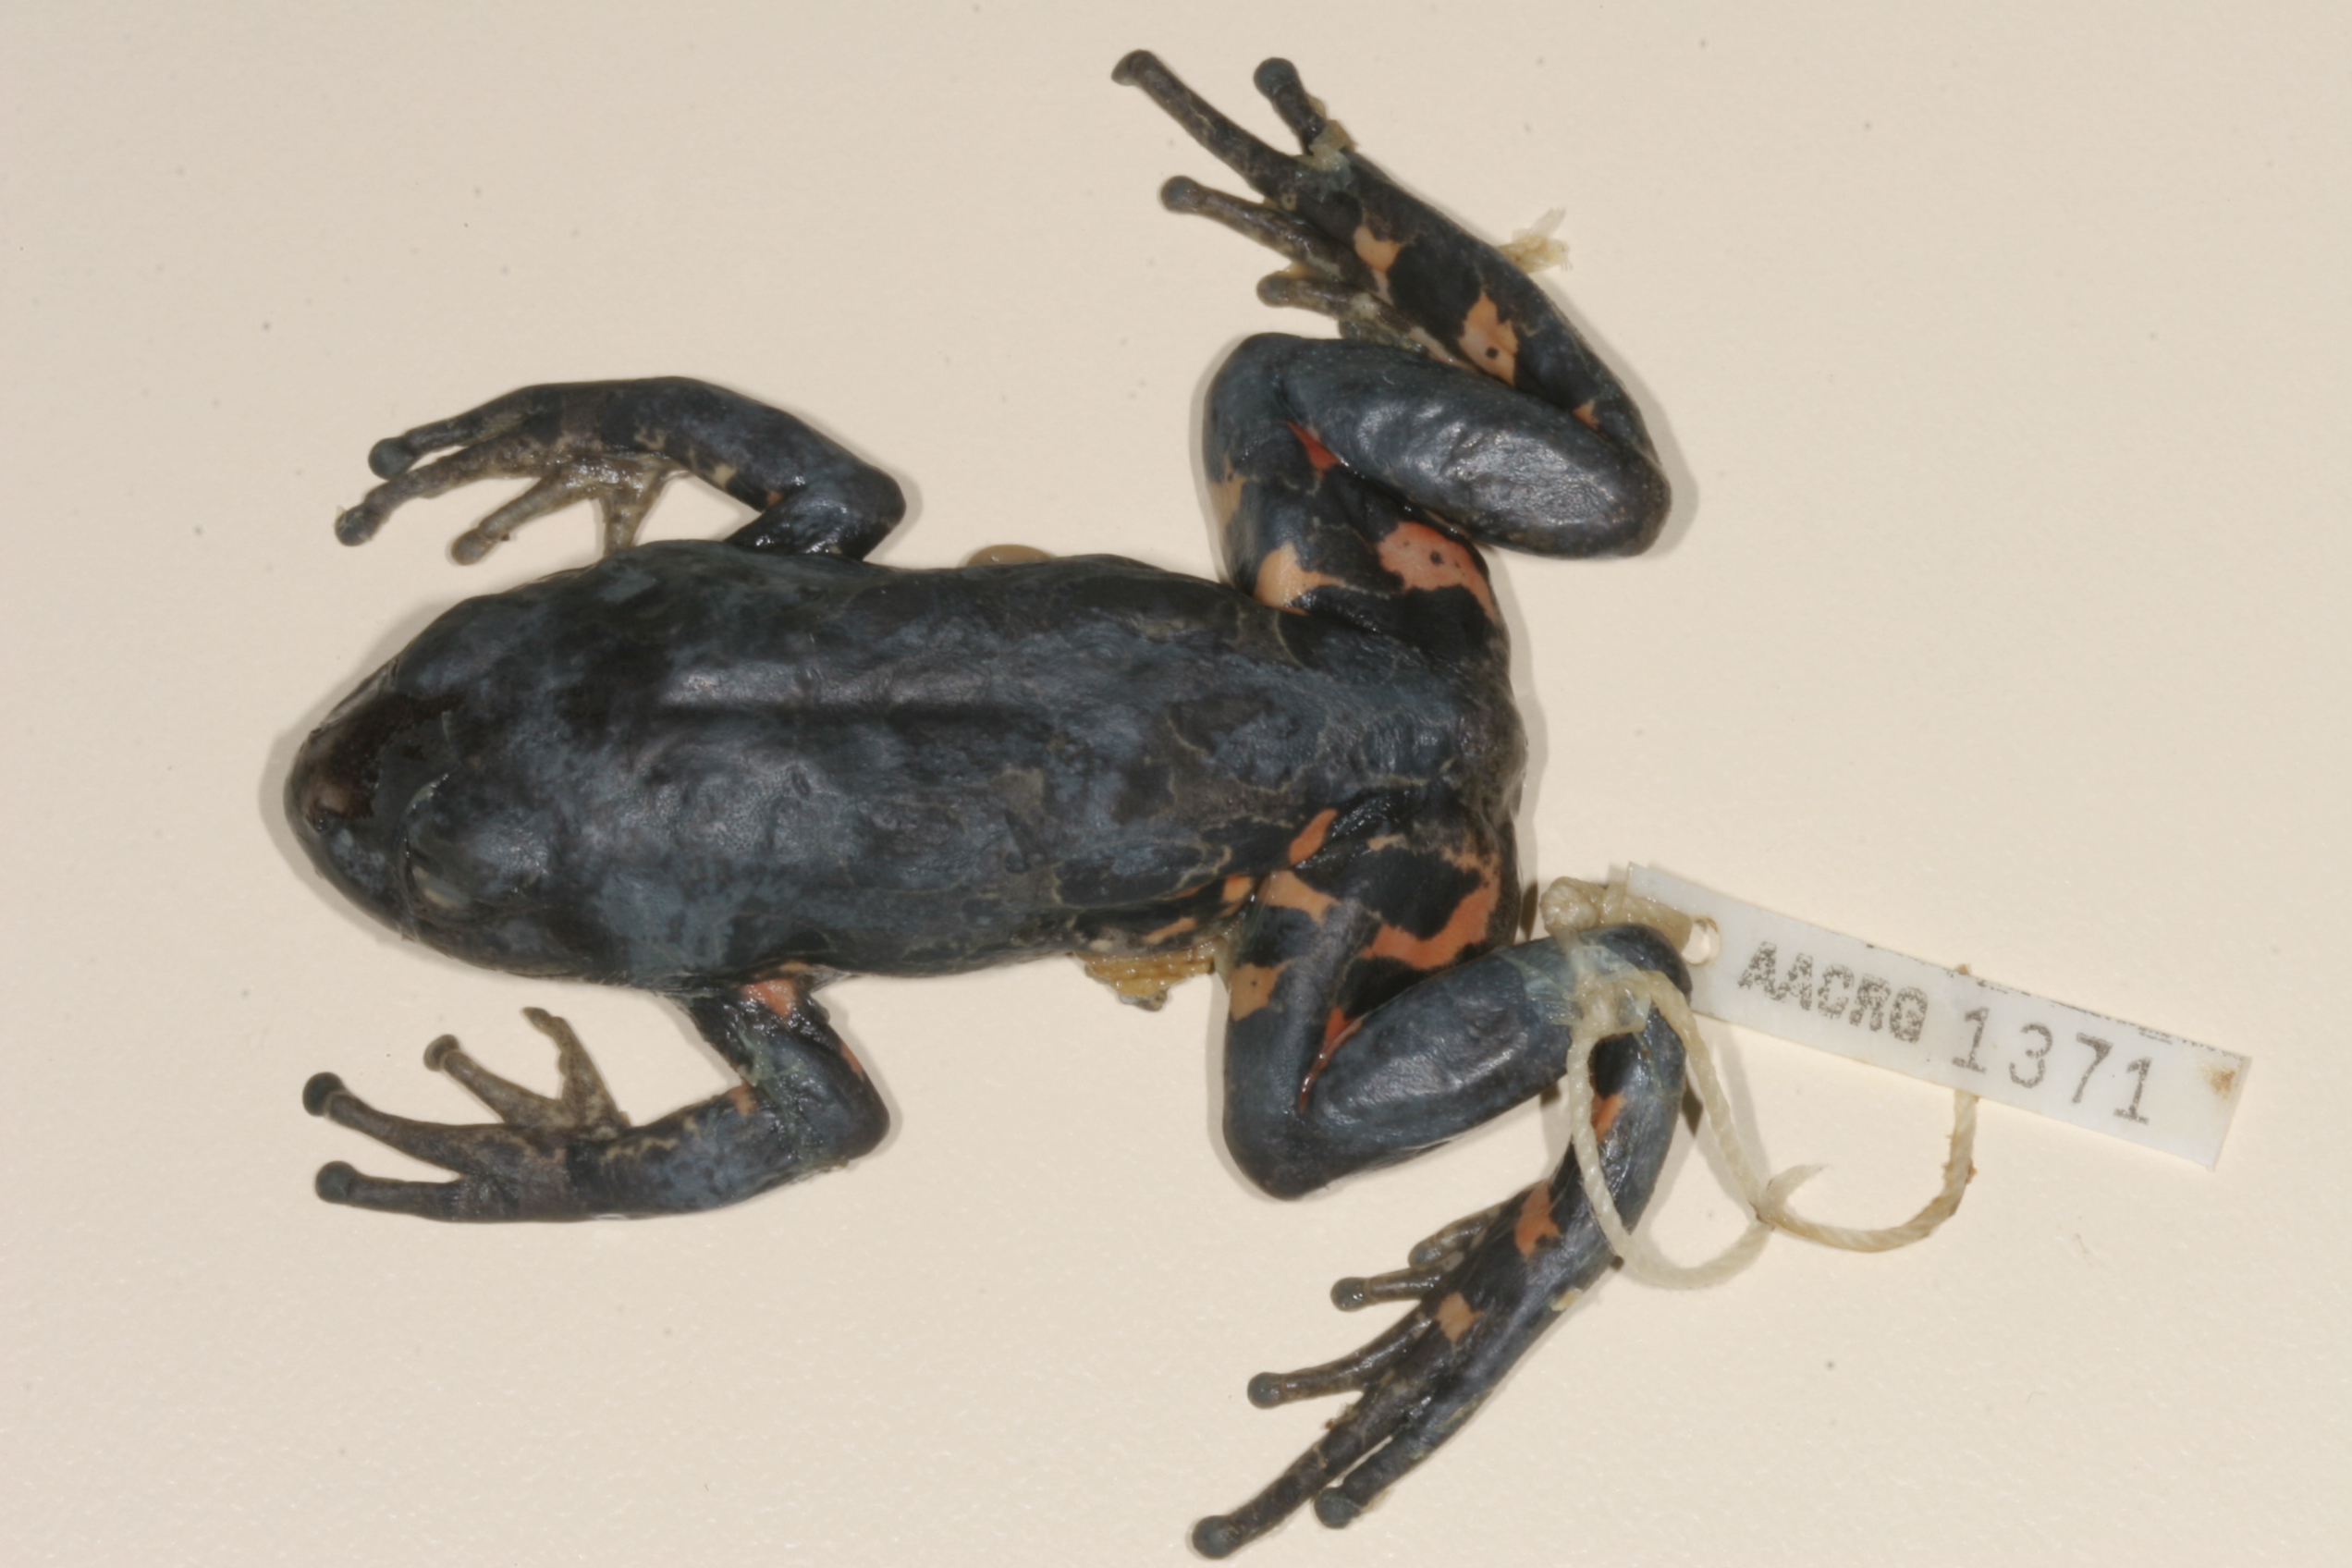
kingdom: Animalia
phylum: Chordata
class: Amphibia
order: Anura
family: Hyperoliidae
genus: Phlyctimantis
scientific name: Phlyctimantis maculatus
